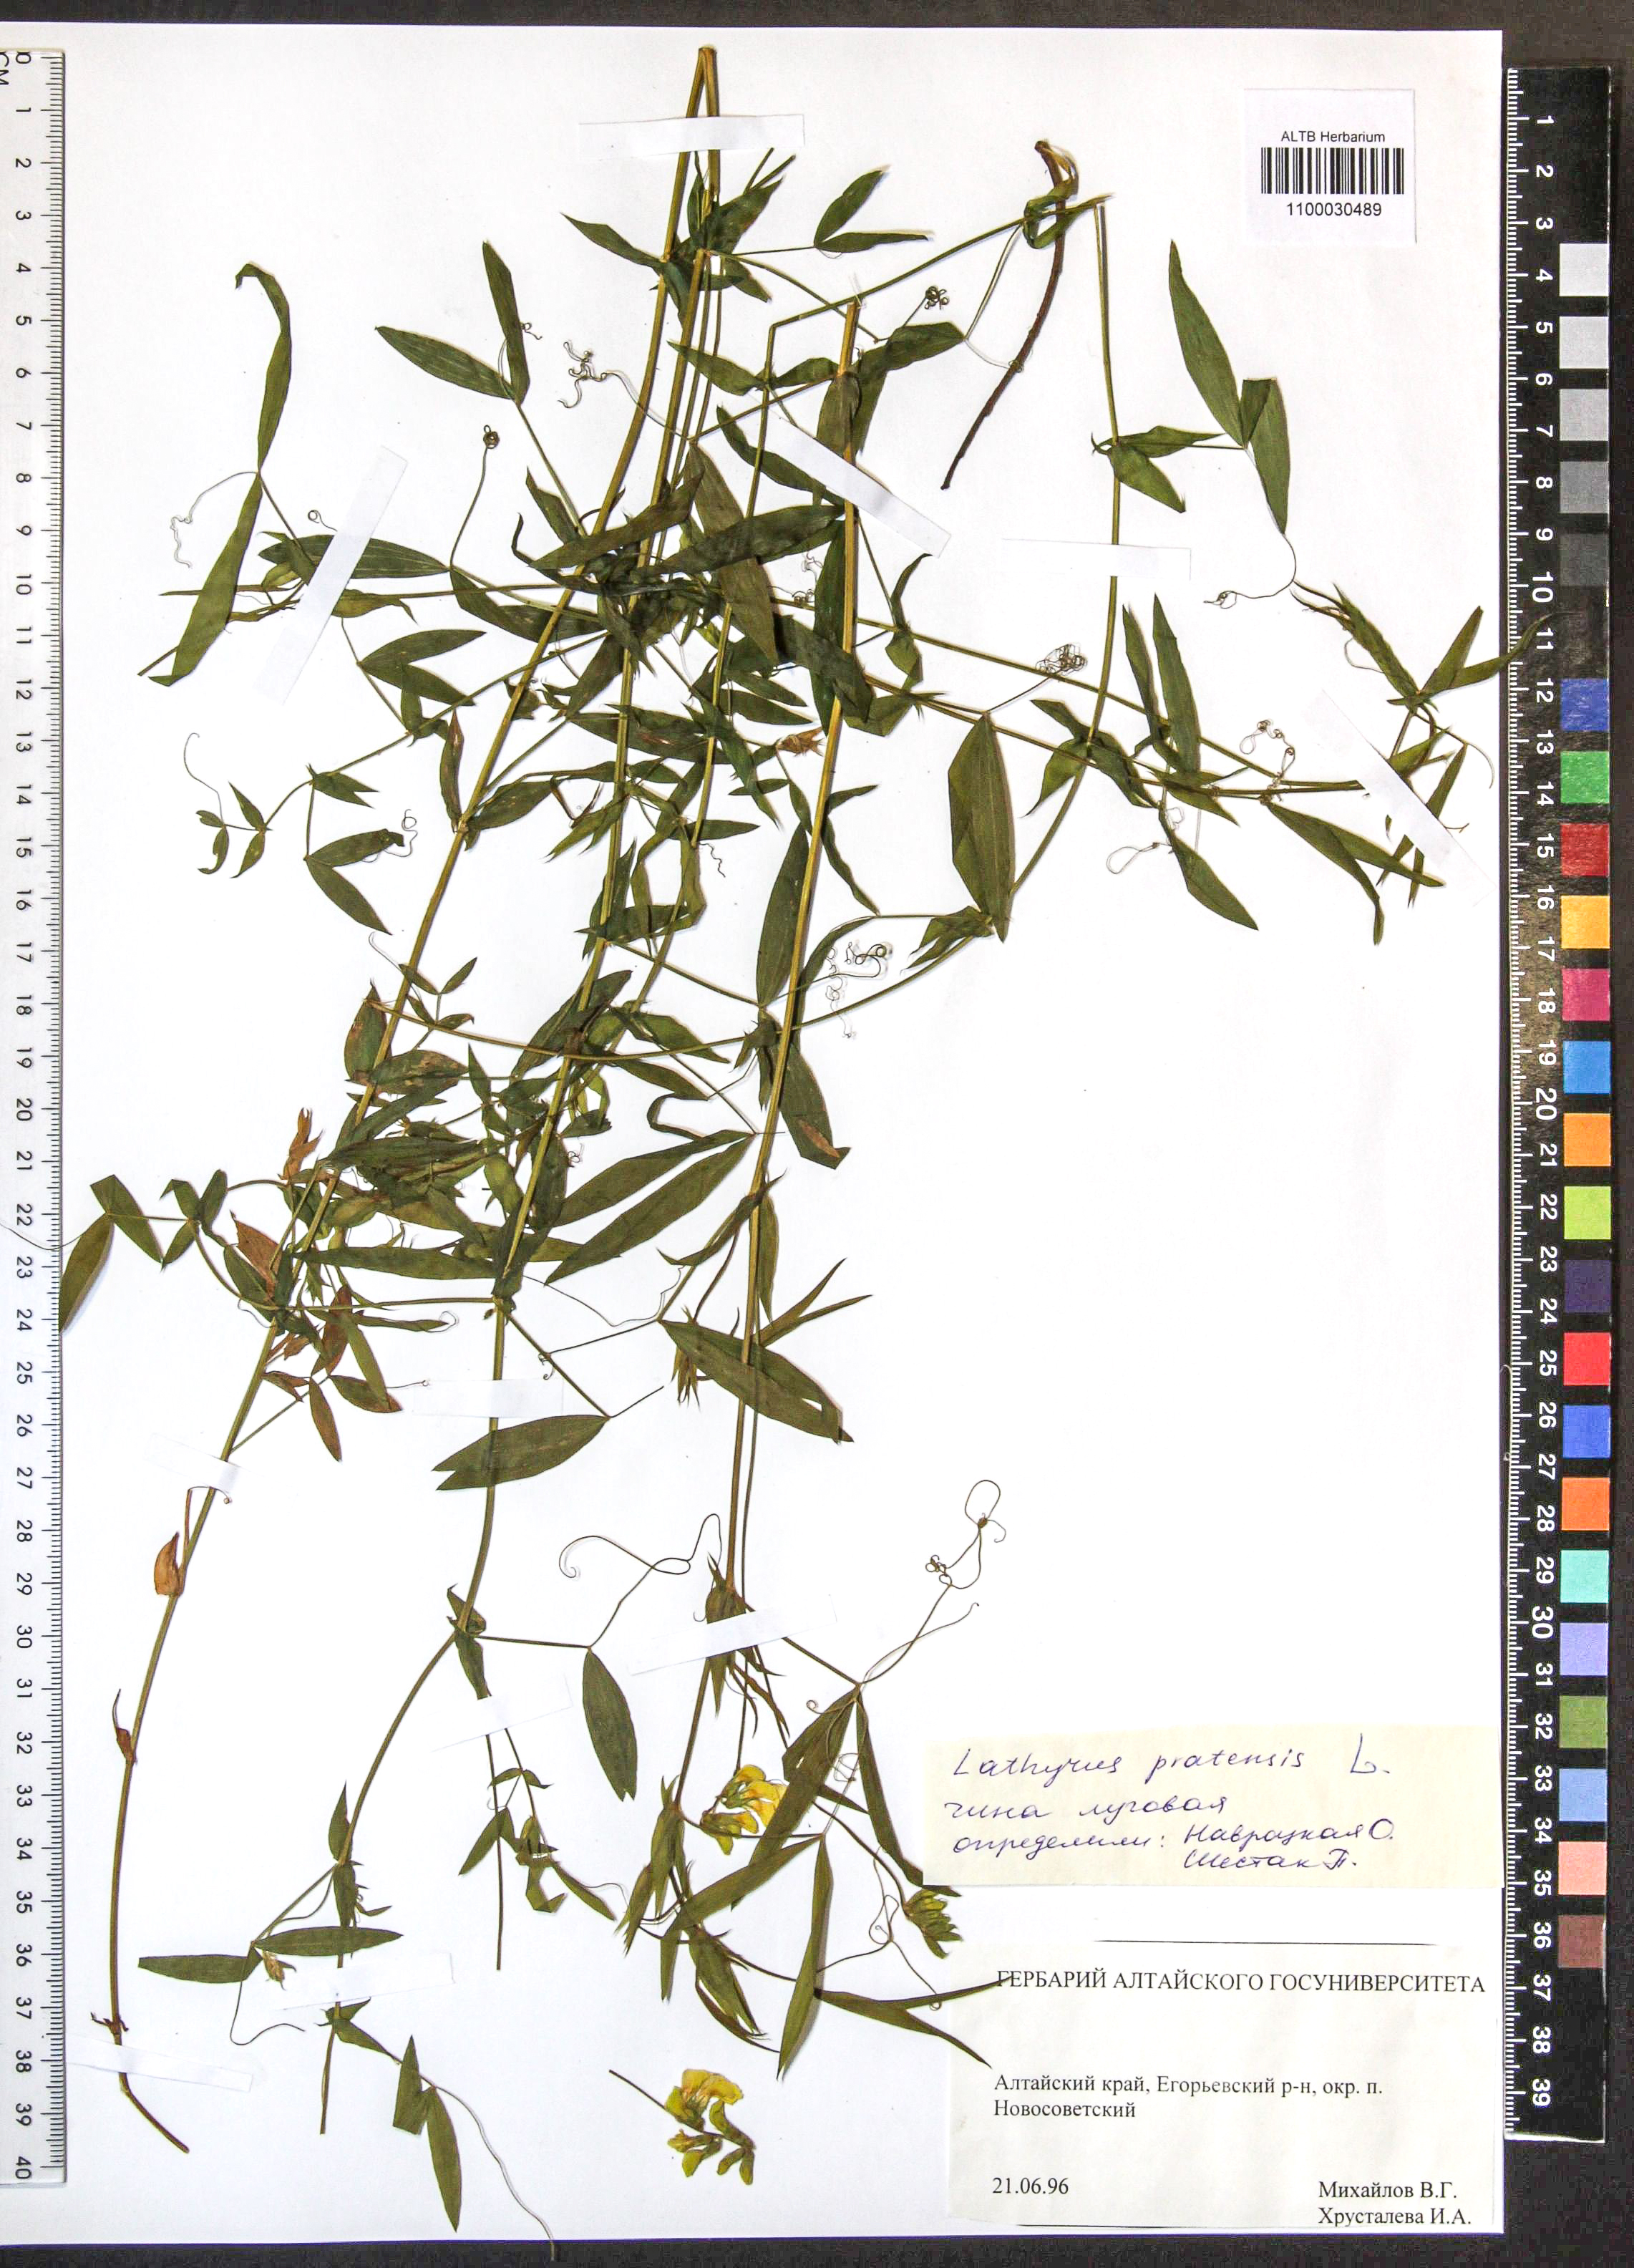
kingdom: Plantae
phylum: Tracheophyta
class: Magnoliopsida
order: Fabales
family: Fabaceae
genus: Lathyrus
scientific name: Lathyrus pratensis
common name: Meadow vetchling
